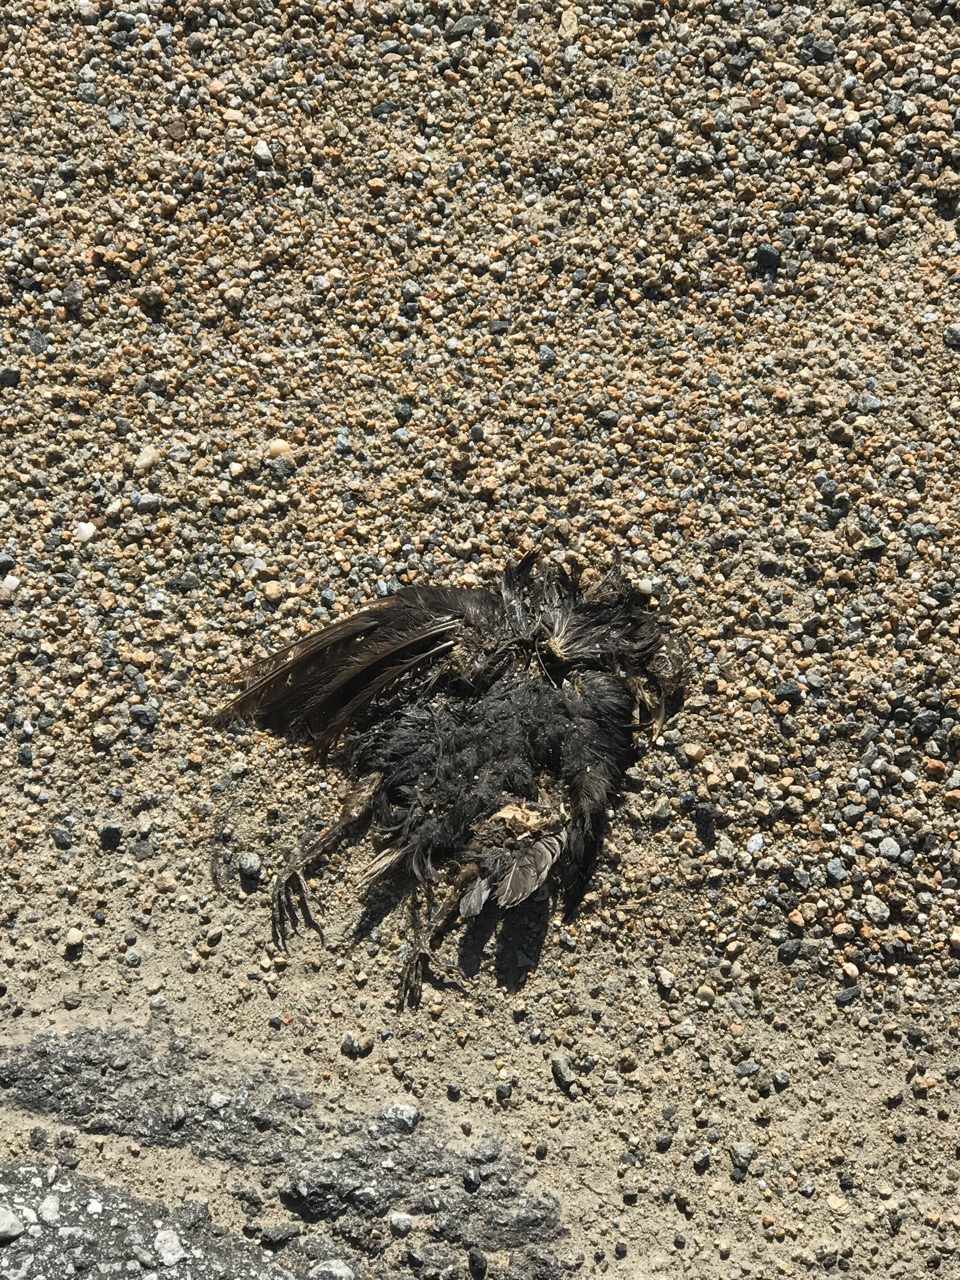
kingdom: Animalia
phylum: Chordata
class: Aves
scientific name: Aves
